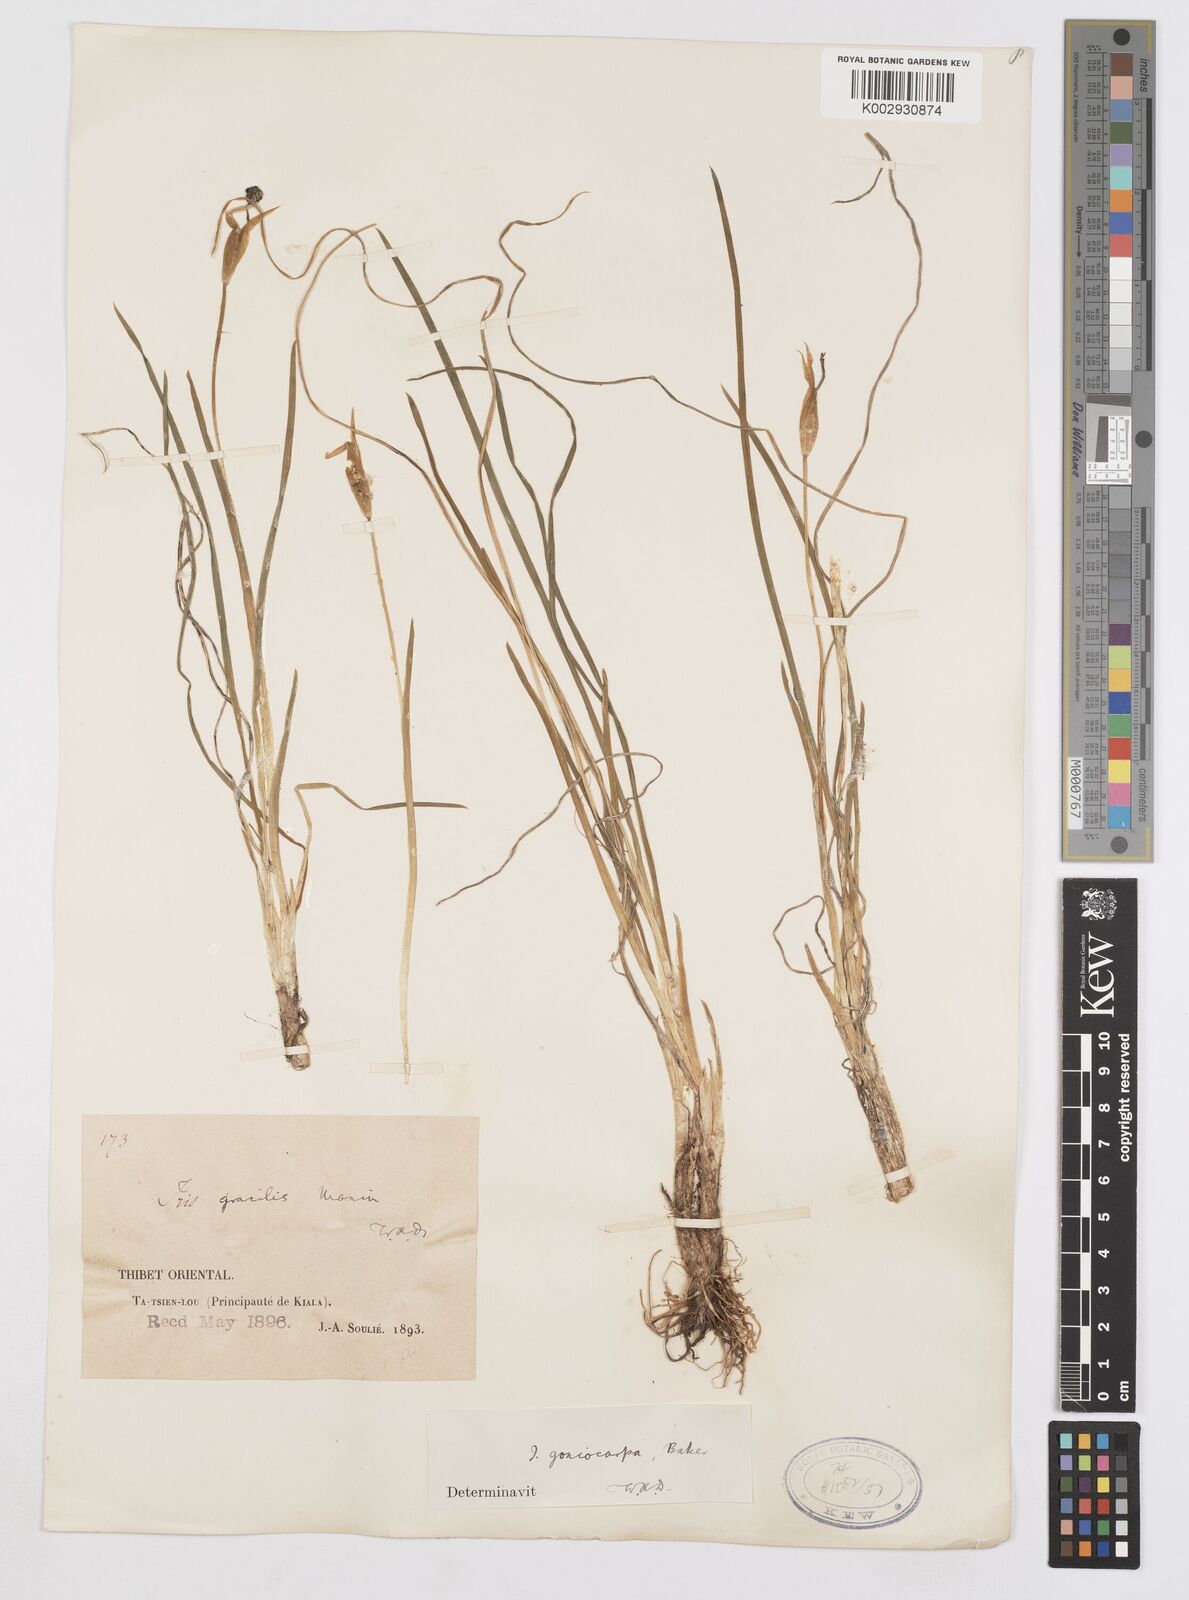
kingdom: Plantae
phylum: Tracheophyta
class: Liliopsida
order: Asparagales
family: Iridaceae
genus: Iris
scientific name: Iris goniocarpa
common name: Angular-fruit iris
